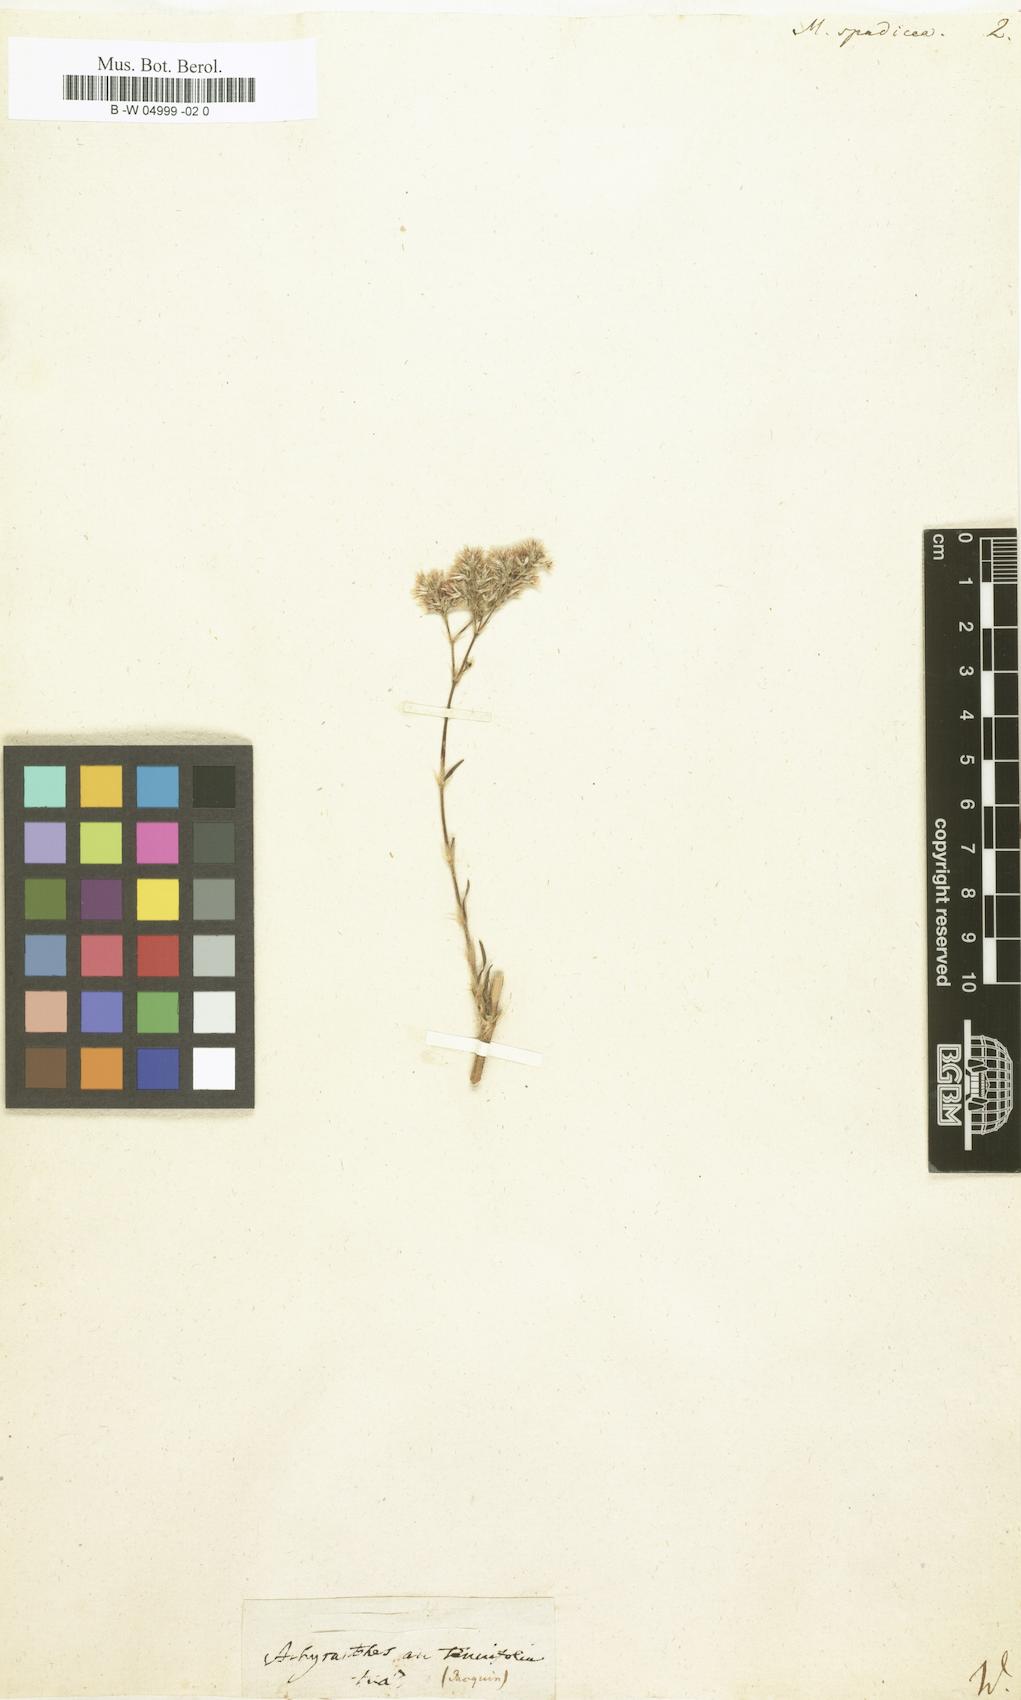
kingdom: Plantae
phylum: Tracheophyta
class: Magnoliopsida
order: Caryophyllales
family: Caryophyllaceae
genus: Polycarpaea
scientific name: Polycarpaea corymbosa
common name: Oldman's cap
